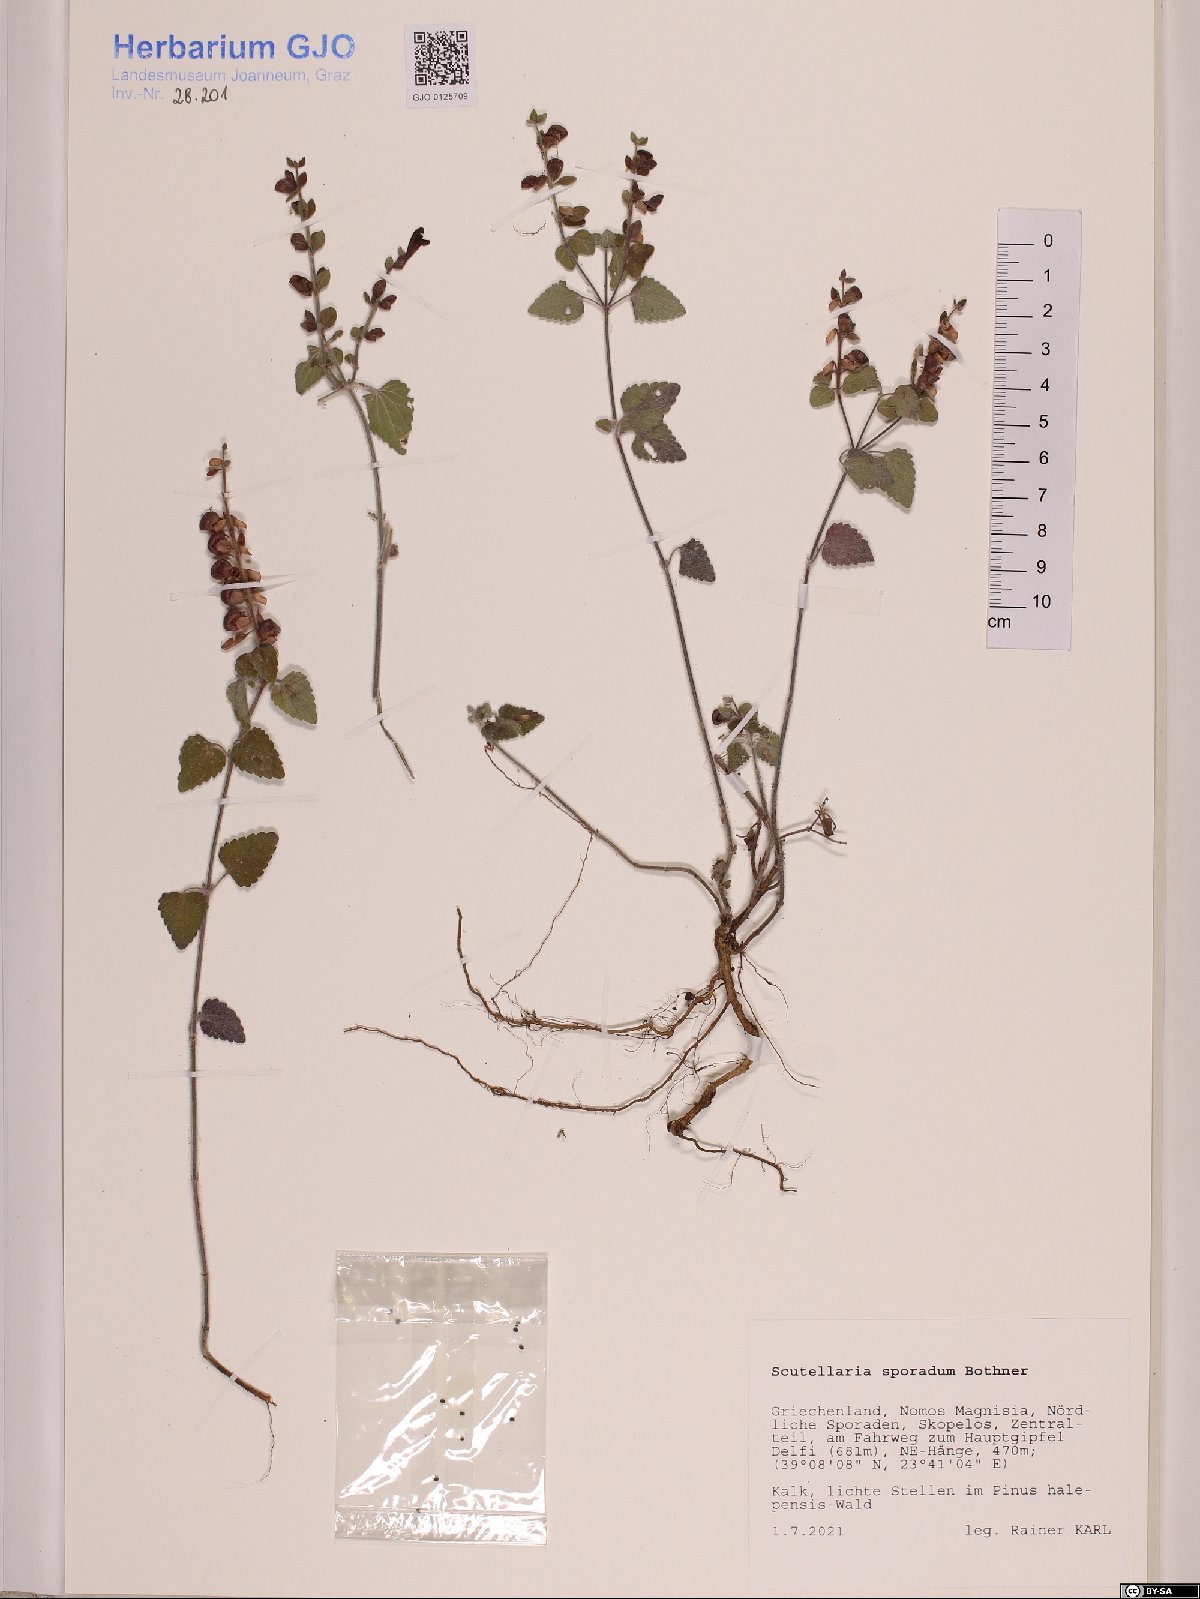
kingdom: Plantae
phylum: Tracheophyta
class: Magnoliopsida
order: Lamiales
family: Lamiaceae
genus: Scutellaria
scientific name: Scutellaria sporadum
